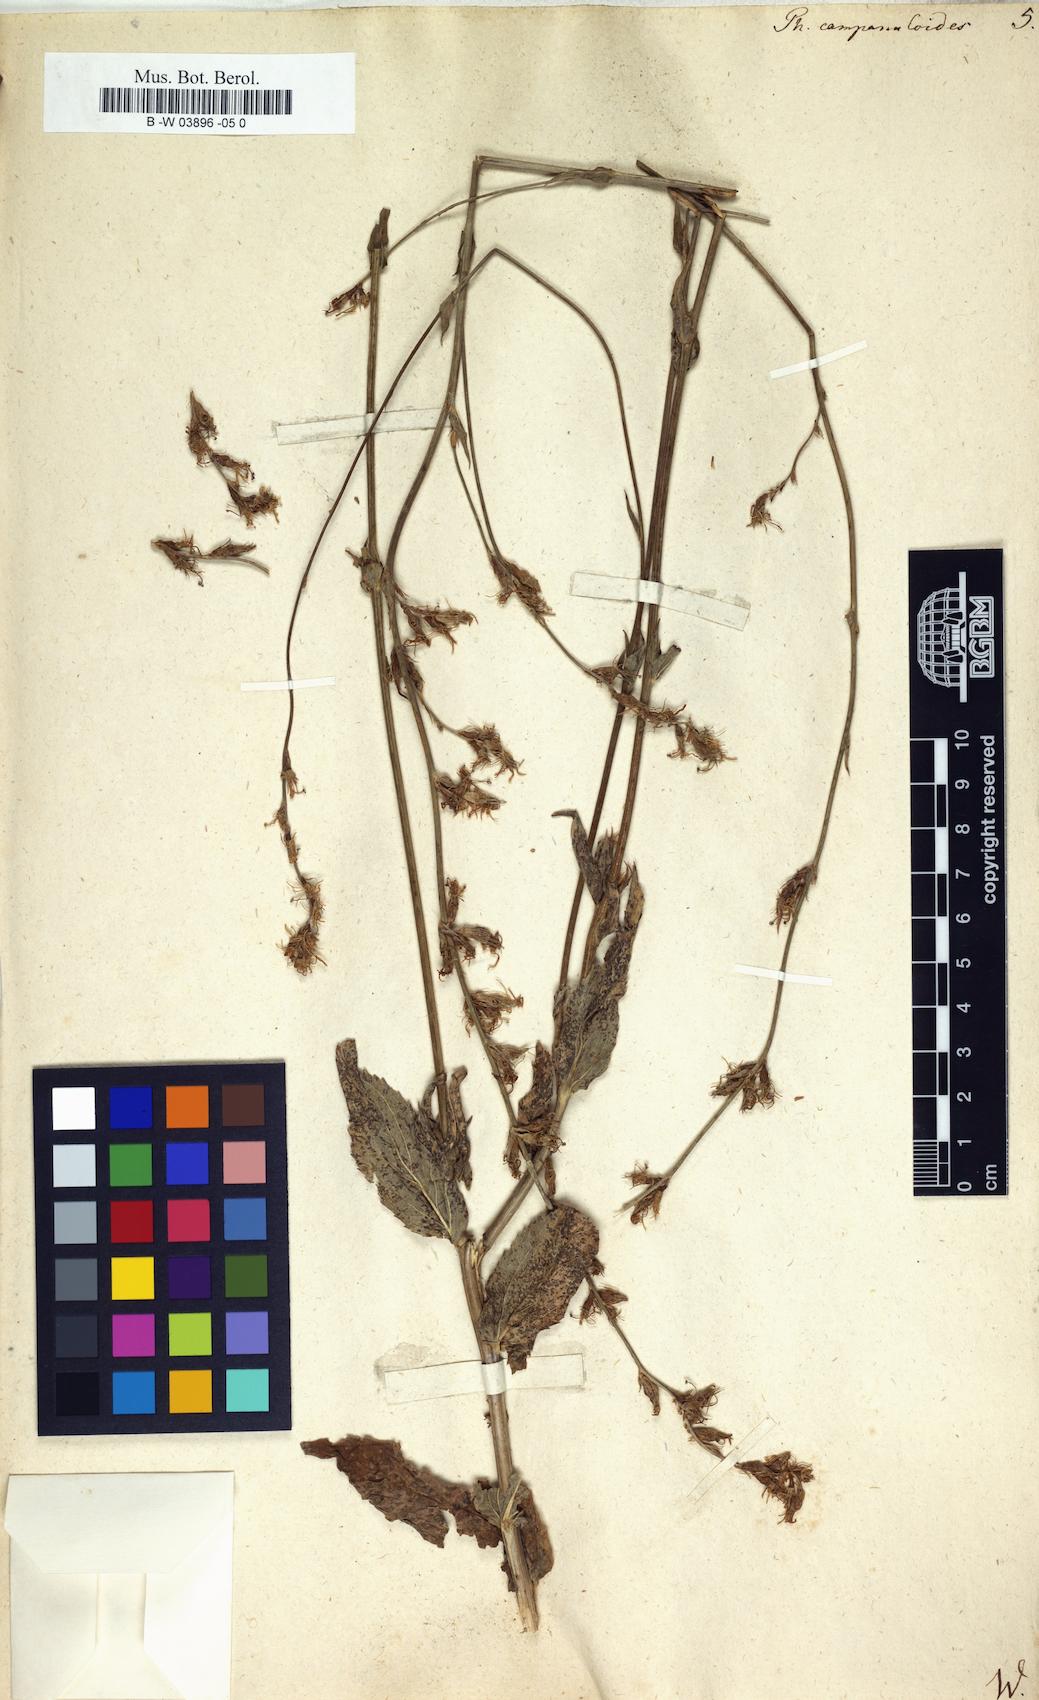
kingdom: Plantae
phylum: Tracheophyta
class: Magnoliopsida
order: Asterales
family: Campanulaceae
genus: Phyteuma
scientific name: Phyteuma campanuloides
